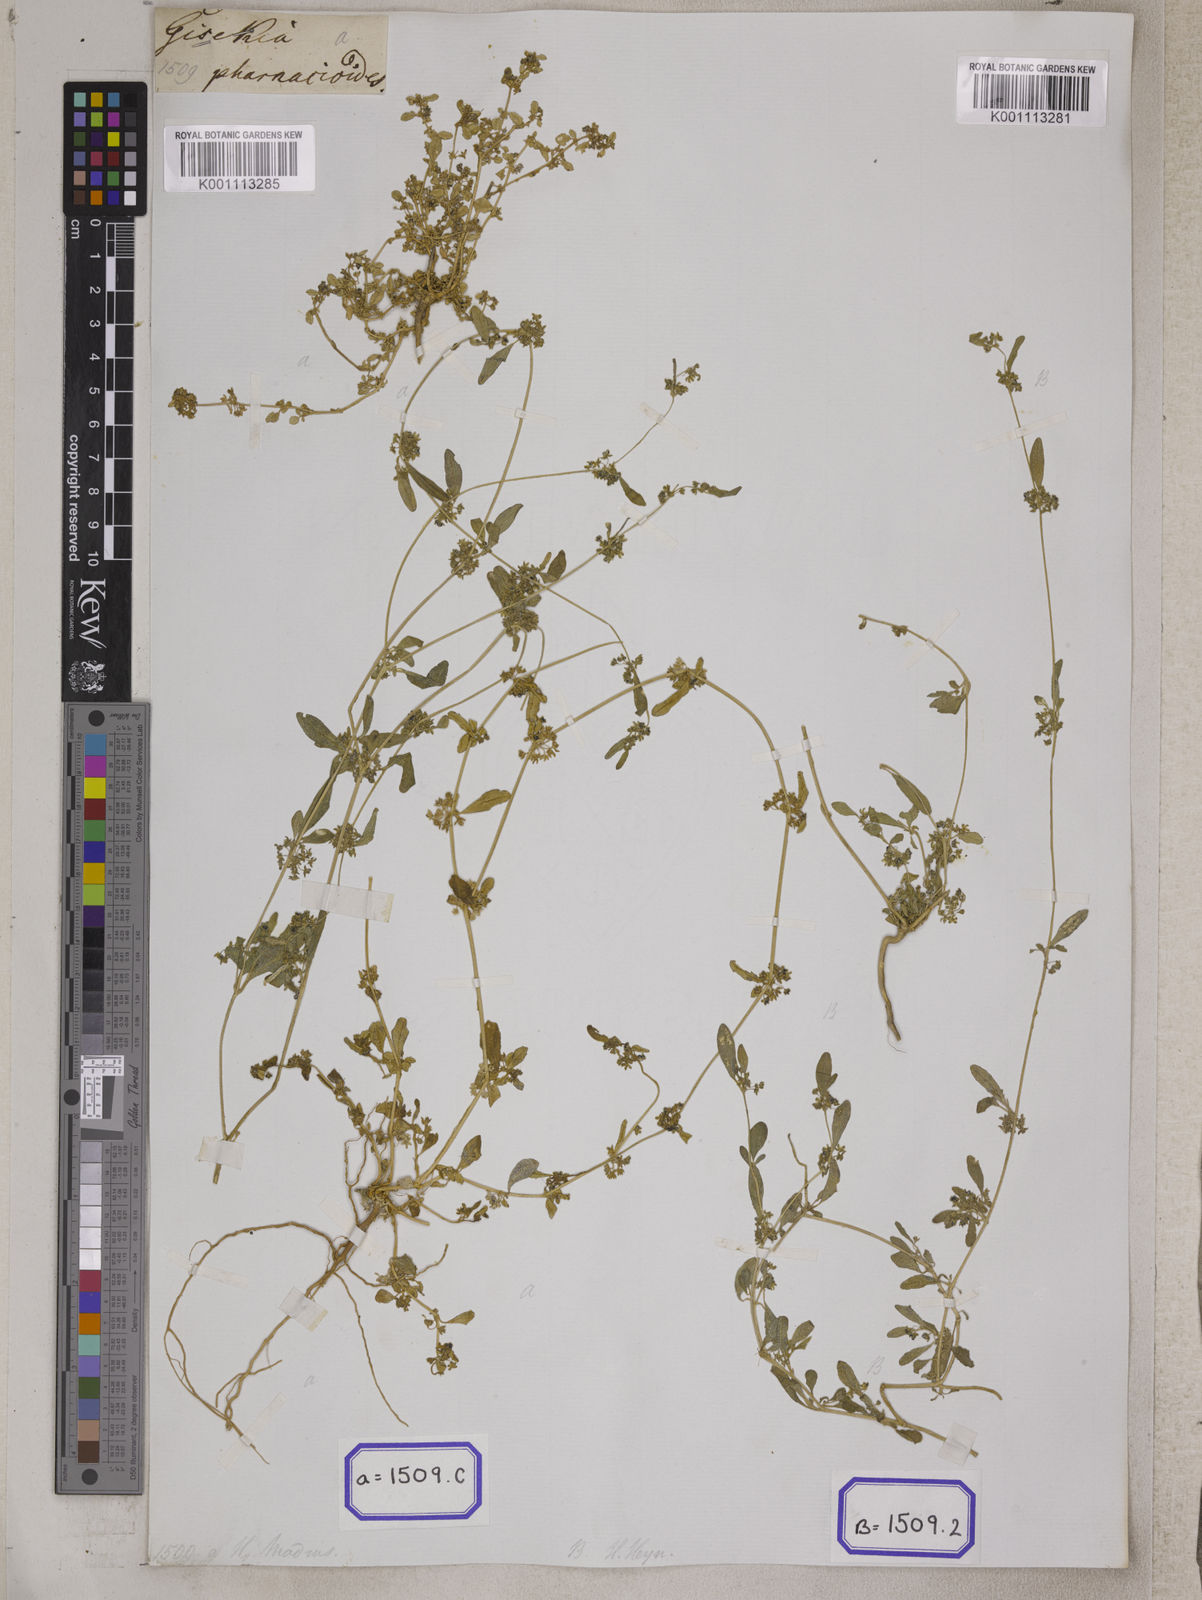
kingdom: Plantae
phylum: Tracheophyta
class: Magnoliopsida
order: Caryophyllales
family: Gisekiaceae
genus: Gisekia
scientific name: Gisekia
